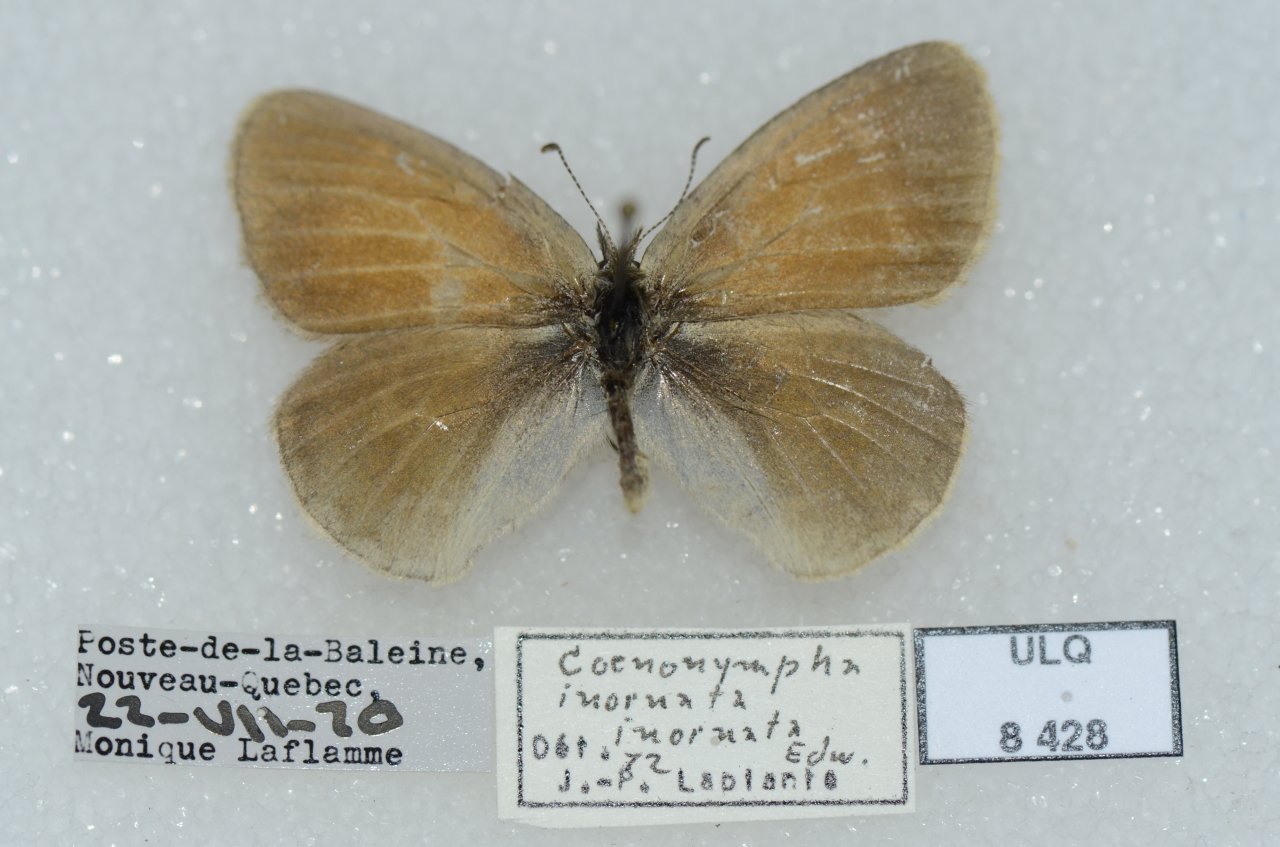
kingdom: Animalia
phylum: Arthropoda
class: Insecta
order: Lepidoptera
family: Nymphalidae
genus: Coenonympha
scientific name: Coenonympha tullia
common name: Large Heath
